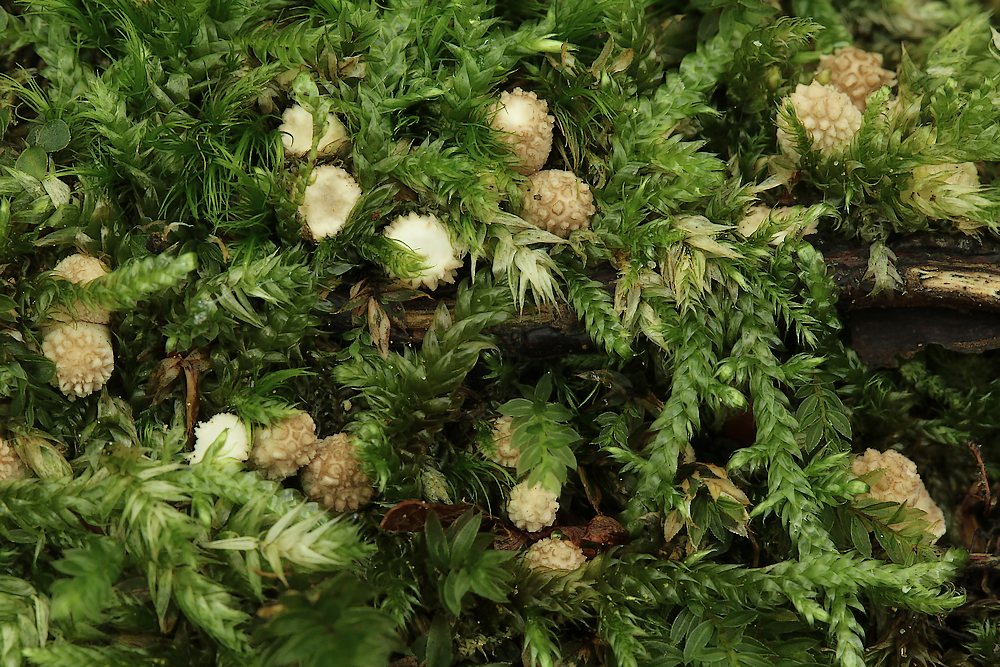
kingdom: Fungi
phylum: Basidiomycota
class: Agaricomycetes
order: Agaricales
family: Lycoperdaceae
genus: Apioperdon
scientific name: Apioperdon pyriforme
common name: pære-støvbold
